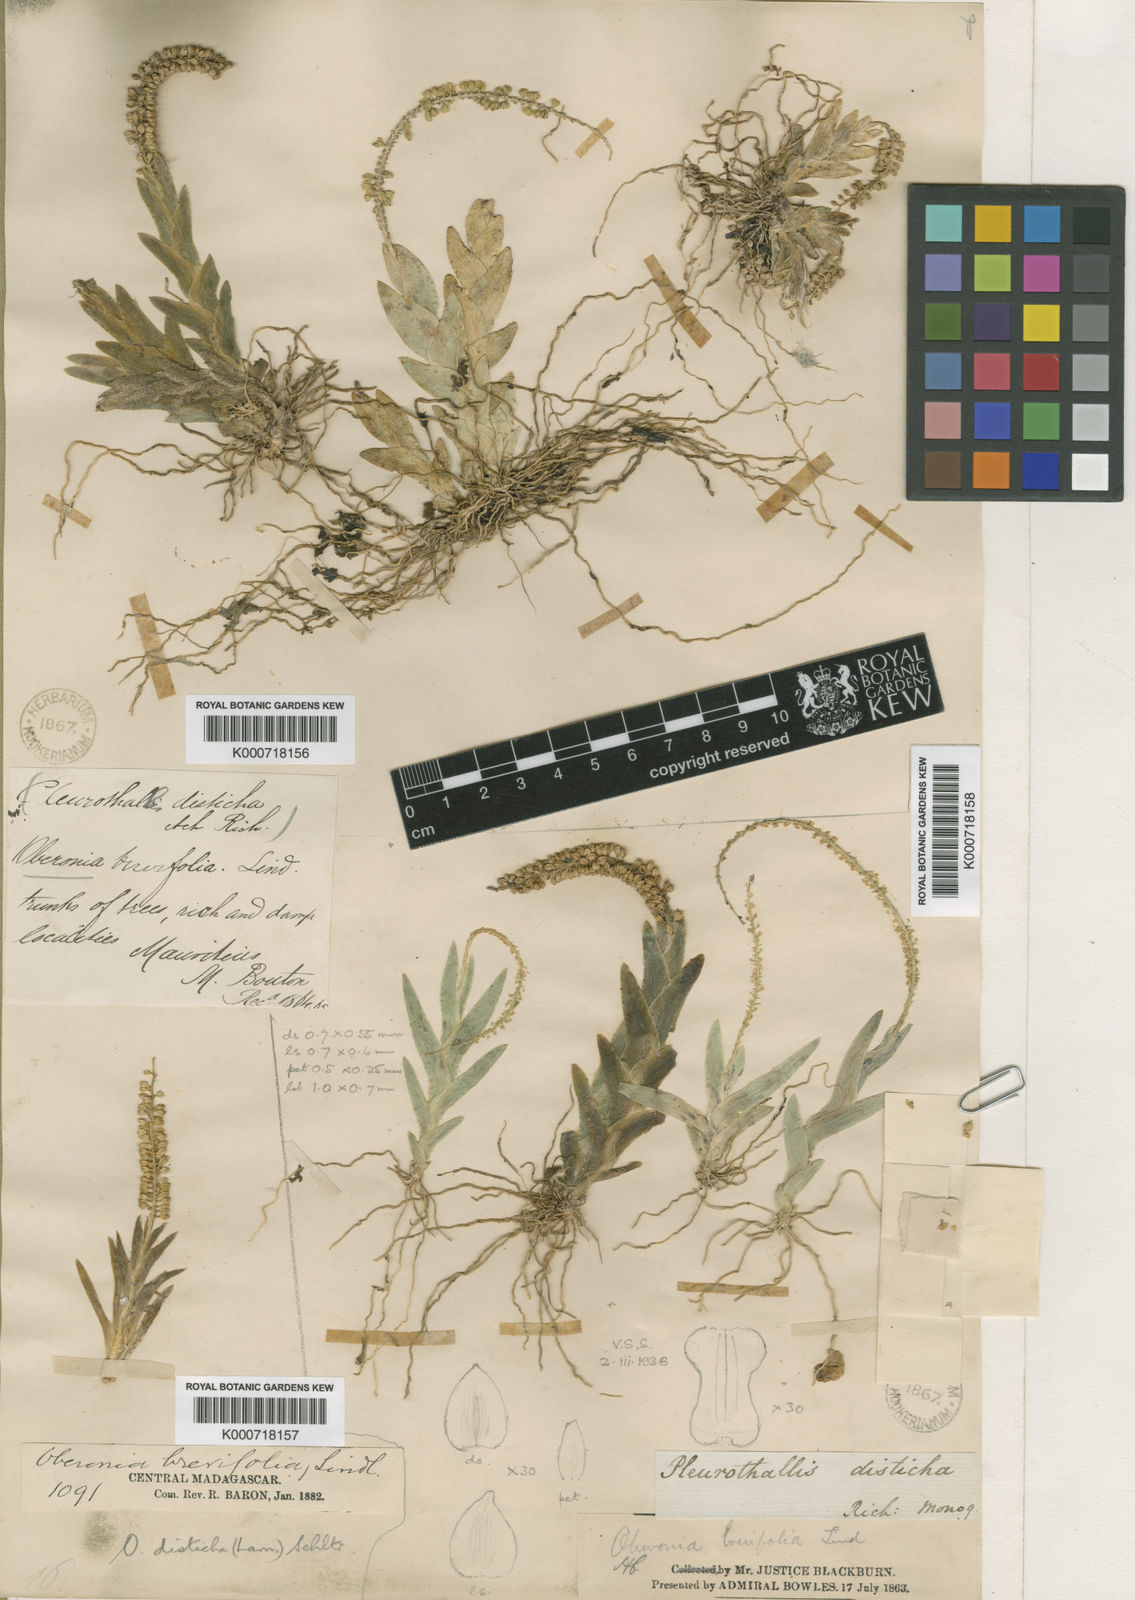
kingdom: Plantae
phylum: Tracheophyta
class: Liliopsida
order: Asparagales
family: Orchidaceae
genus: Oberonia
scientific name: Oberonia disticha
